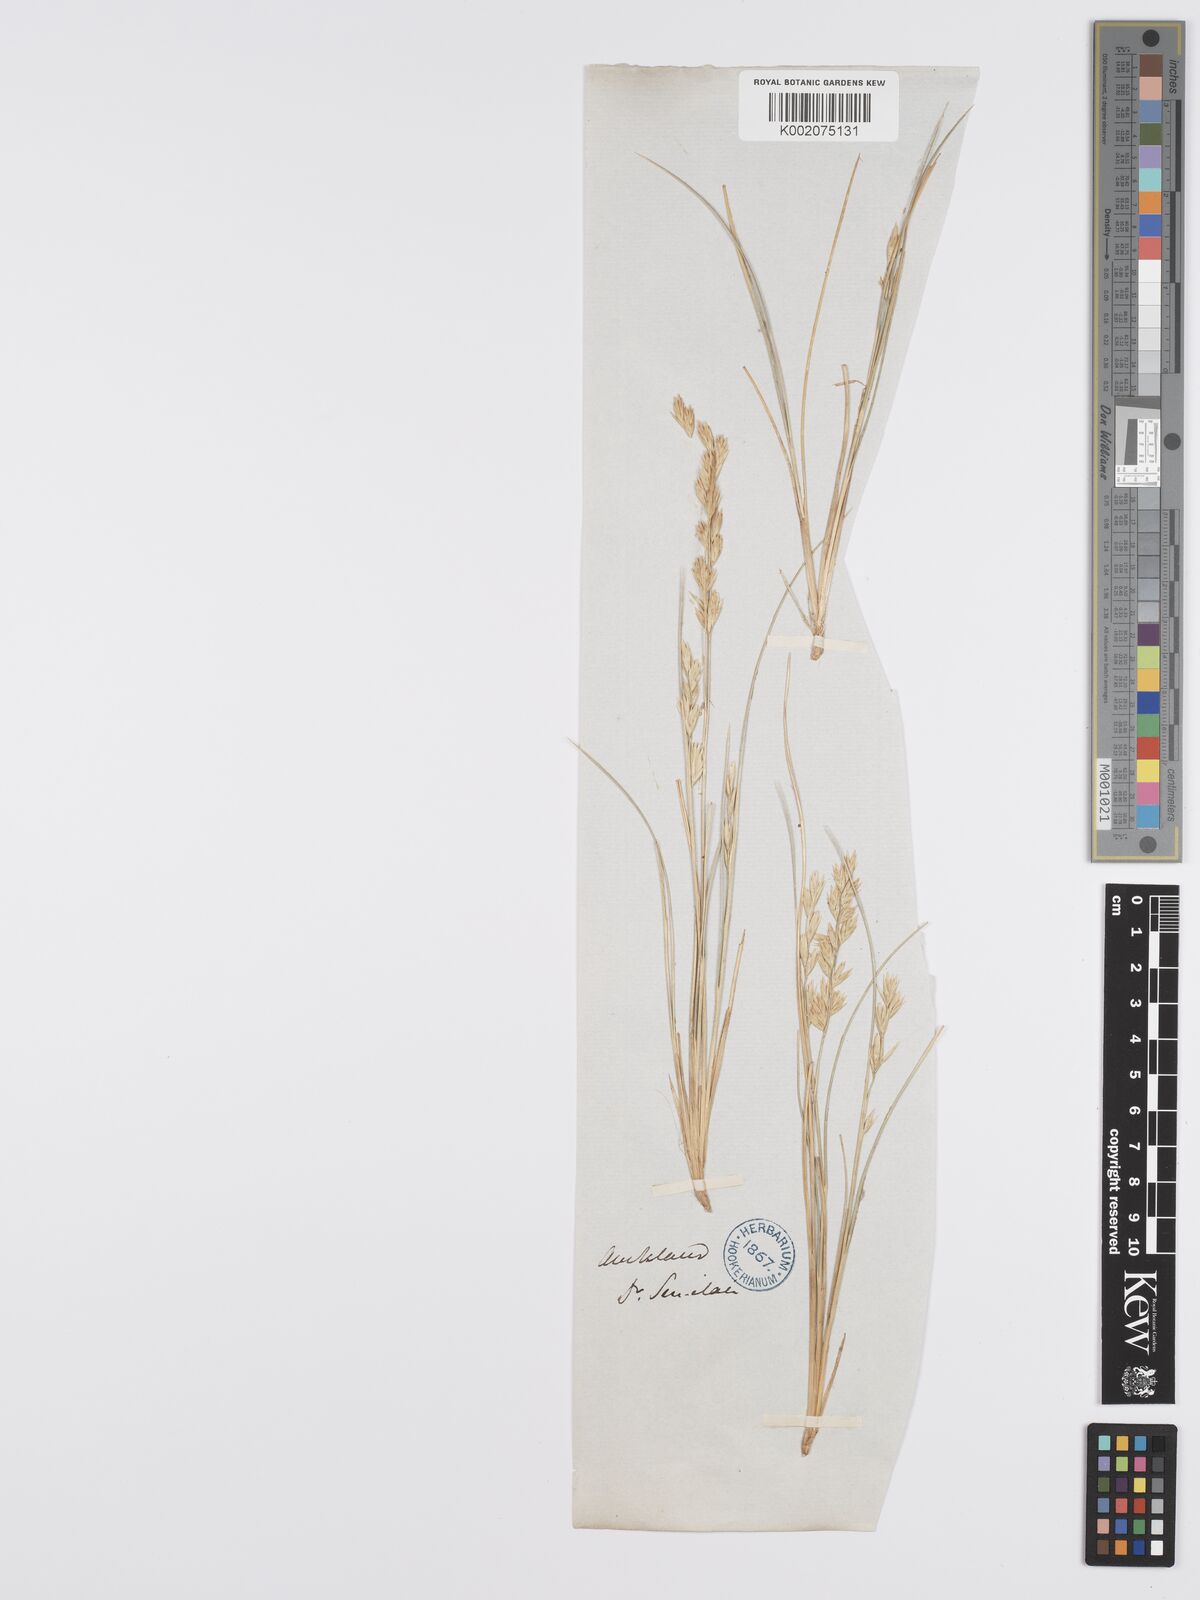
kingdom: Plantae
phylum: Tracheophyta
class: Liliopsida
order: Poales
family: Poaceae
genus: Poa
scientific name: Poa
